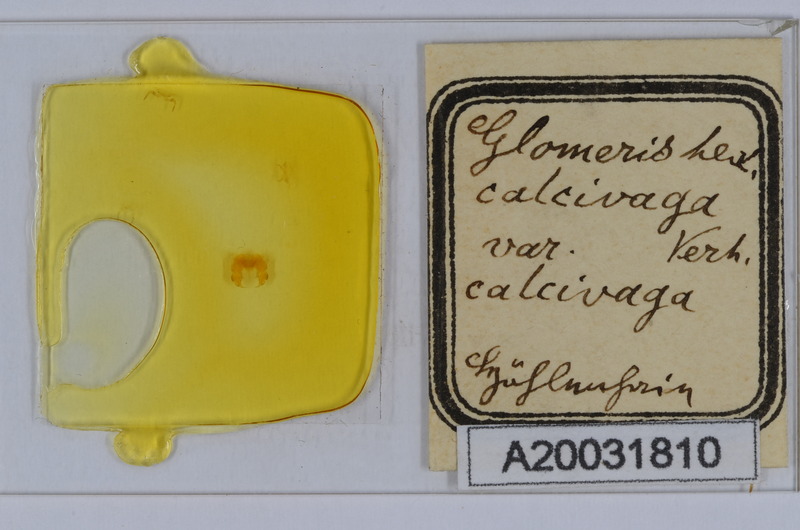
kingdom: Animalia
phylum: Arthropoda
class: Diplopoda
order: Glomerida
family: Glomeridae
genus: Glomeris
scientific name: Glomeris hexasticha
